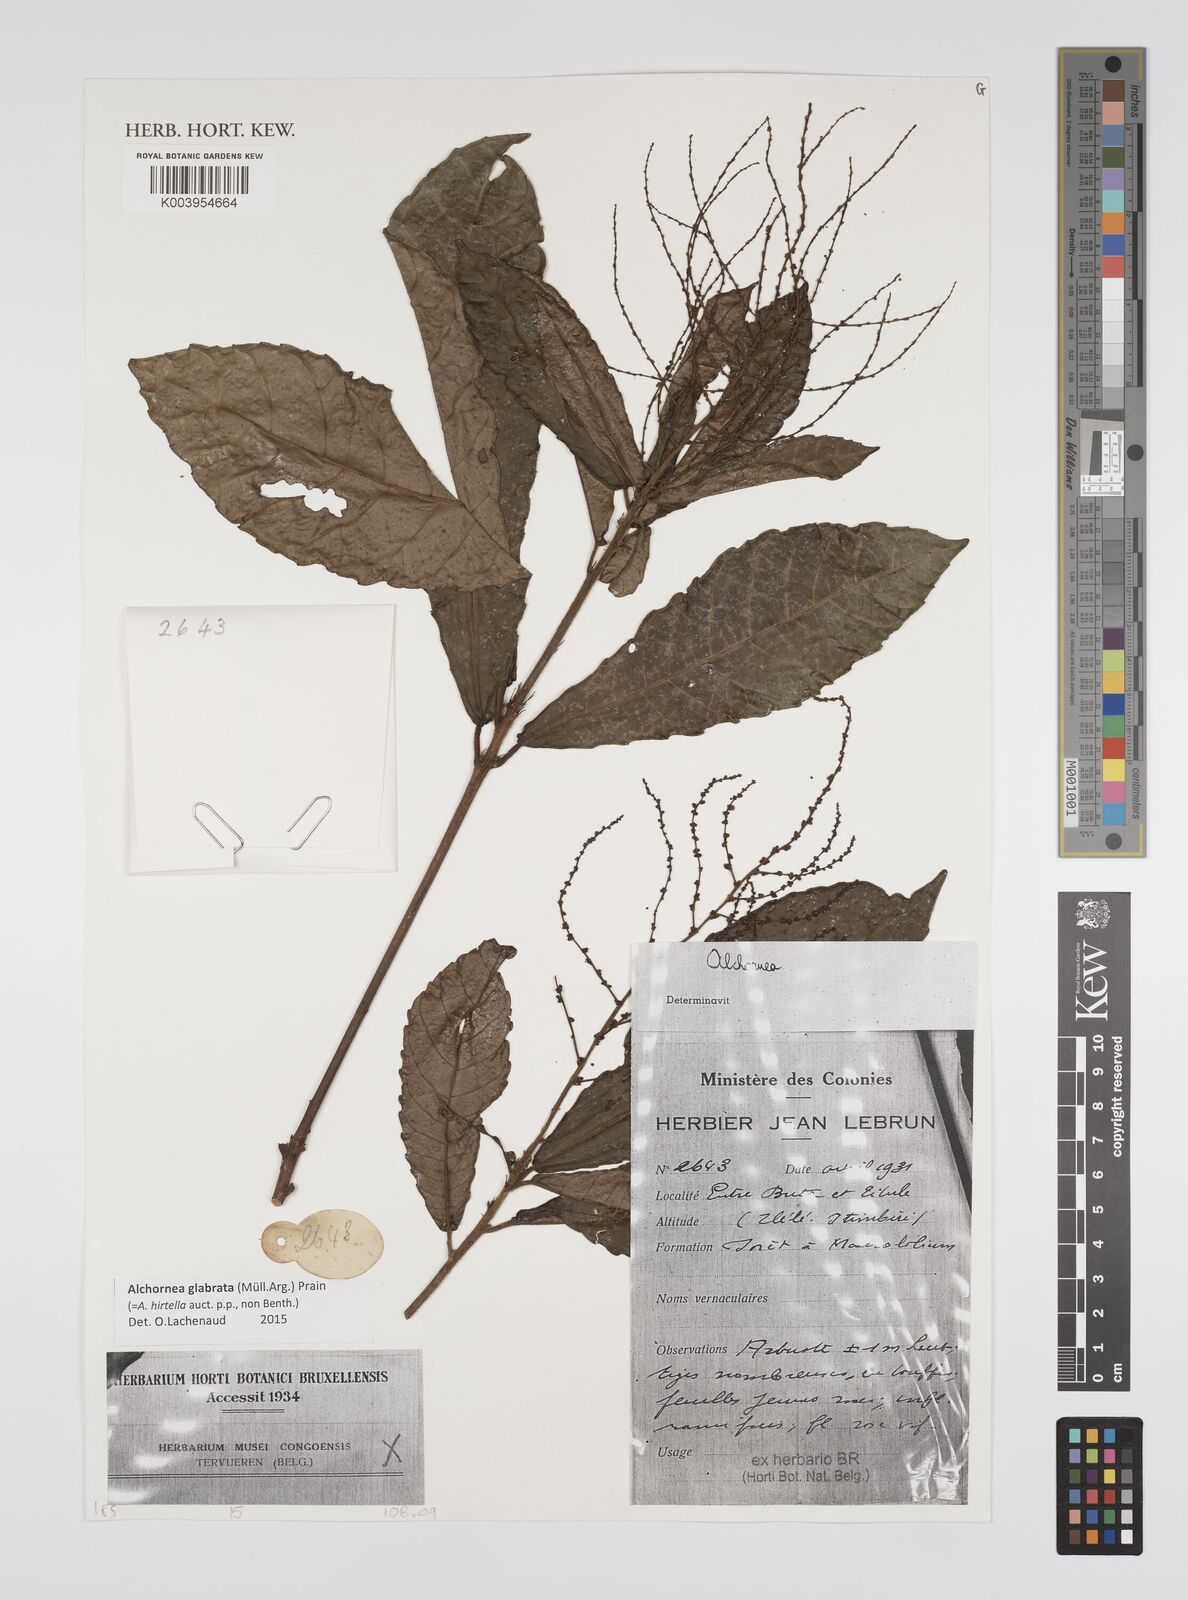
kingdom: Plantae
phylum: Tracheophyta
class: Magnoliopsida
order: Malpighiales
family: Euphorbiaceae
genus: Alchornea
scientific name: Alchornea hirtella
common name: Forest bead-string
